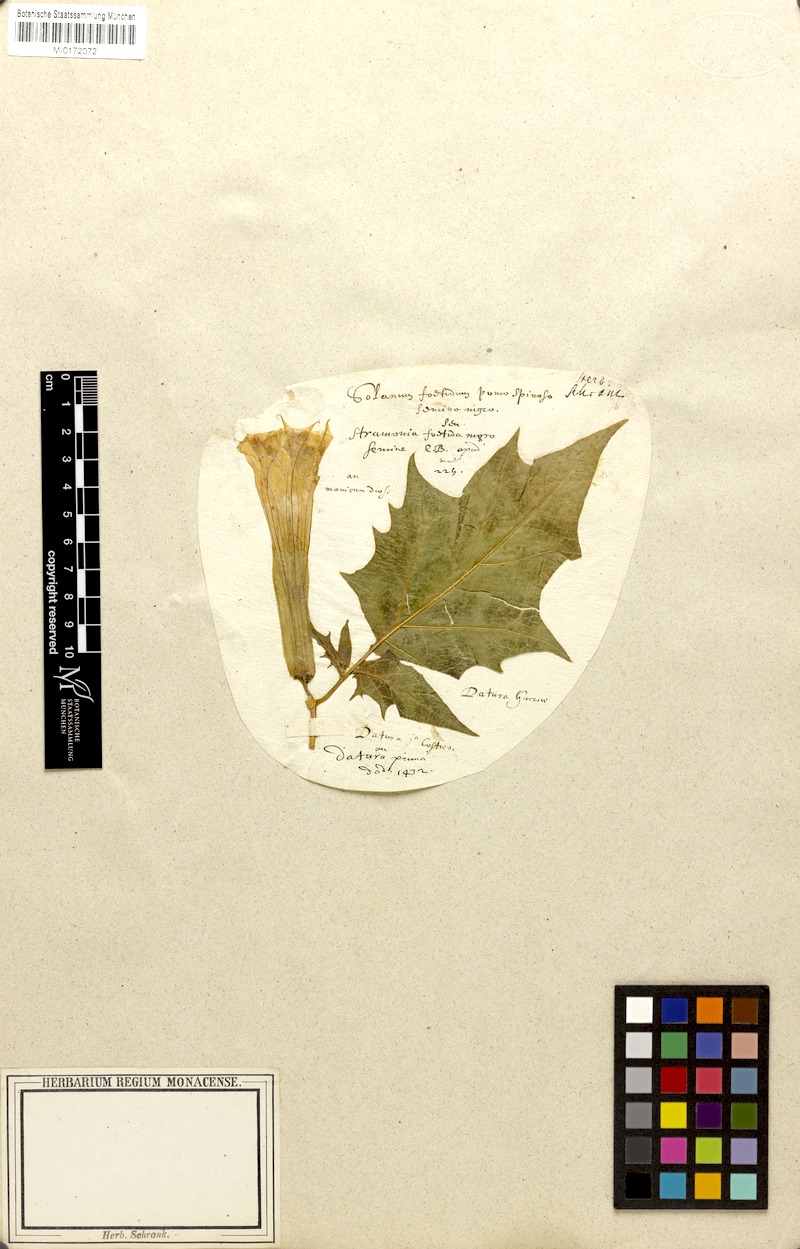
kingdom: Plantae
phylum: Tracheophyta
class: Magnoliopsida
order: Solanales
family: Solanaceae
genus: Datura
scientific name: Datura stramonium
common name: Thorn-apple
